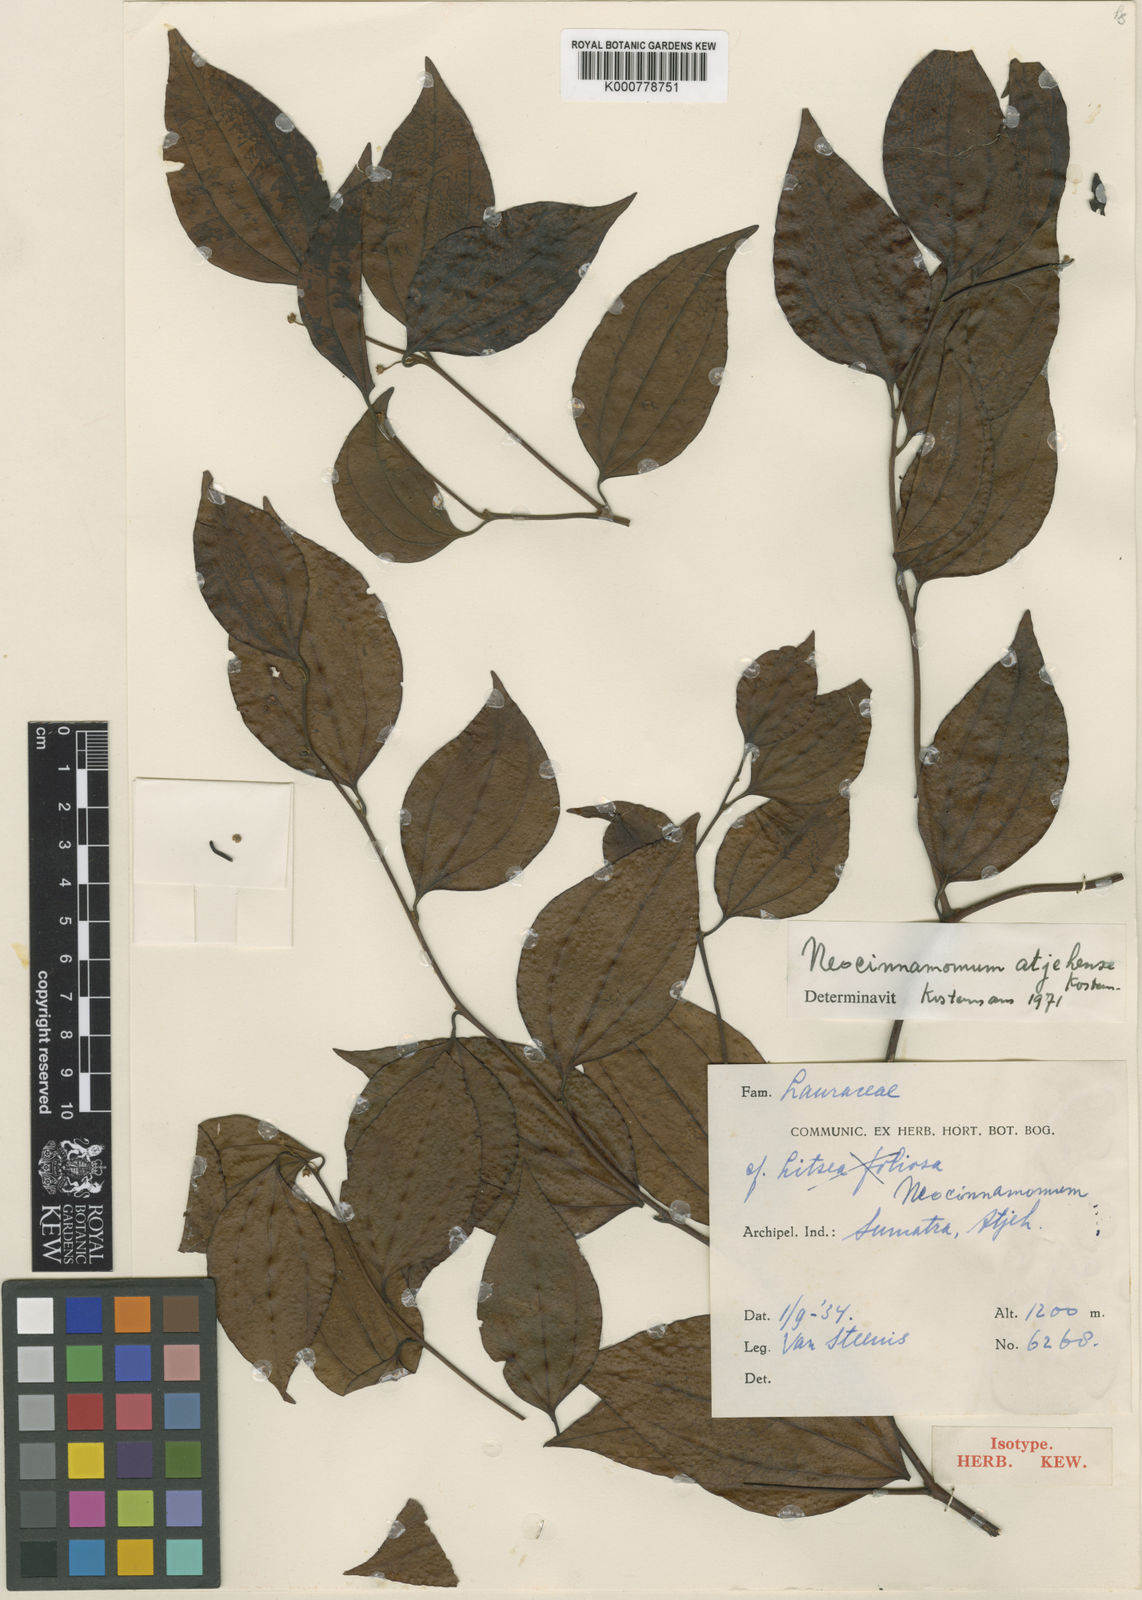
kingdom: Plantae
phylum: Tracheophyta
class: Magnoliopsida
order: Laurales
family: Lauraceae
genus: Neocinnamomum
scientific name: Neocinnamomum atjehense
